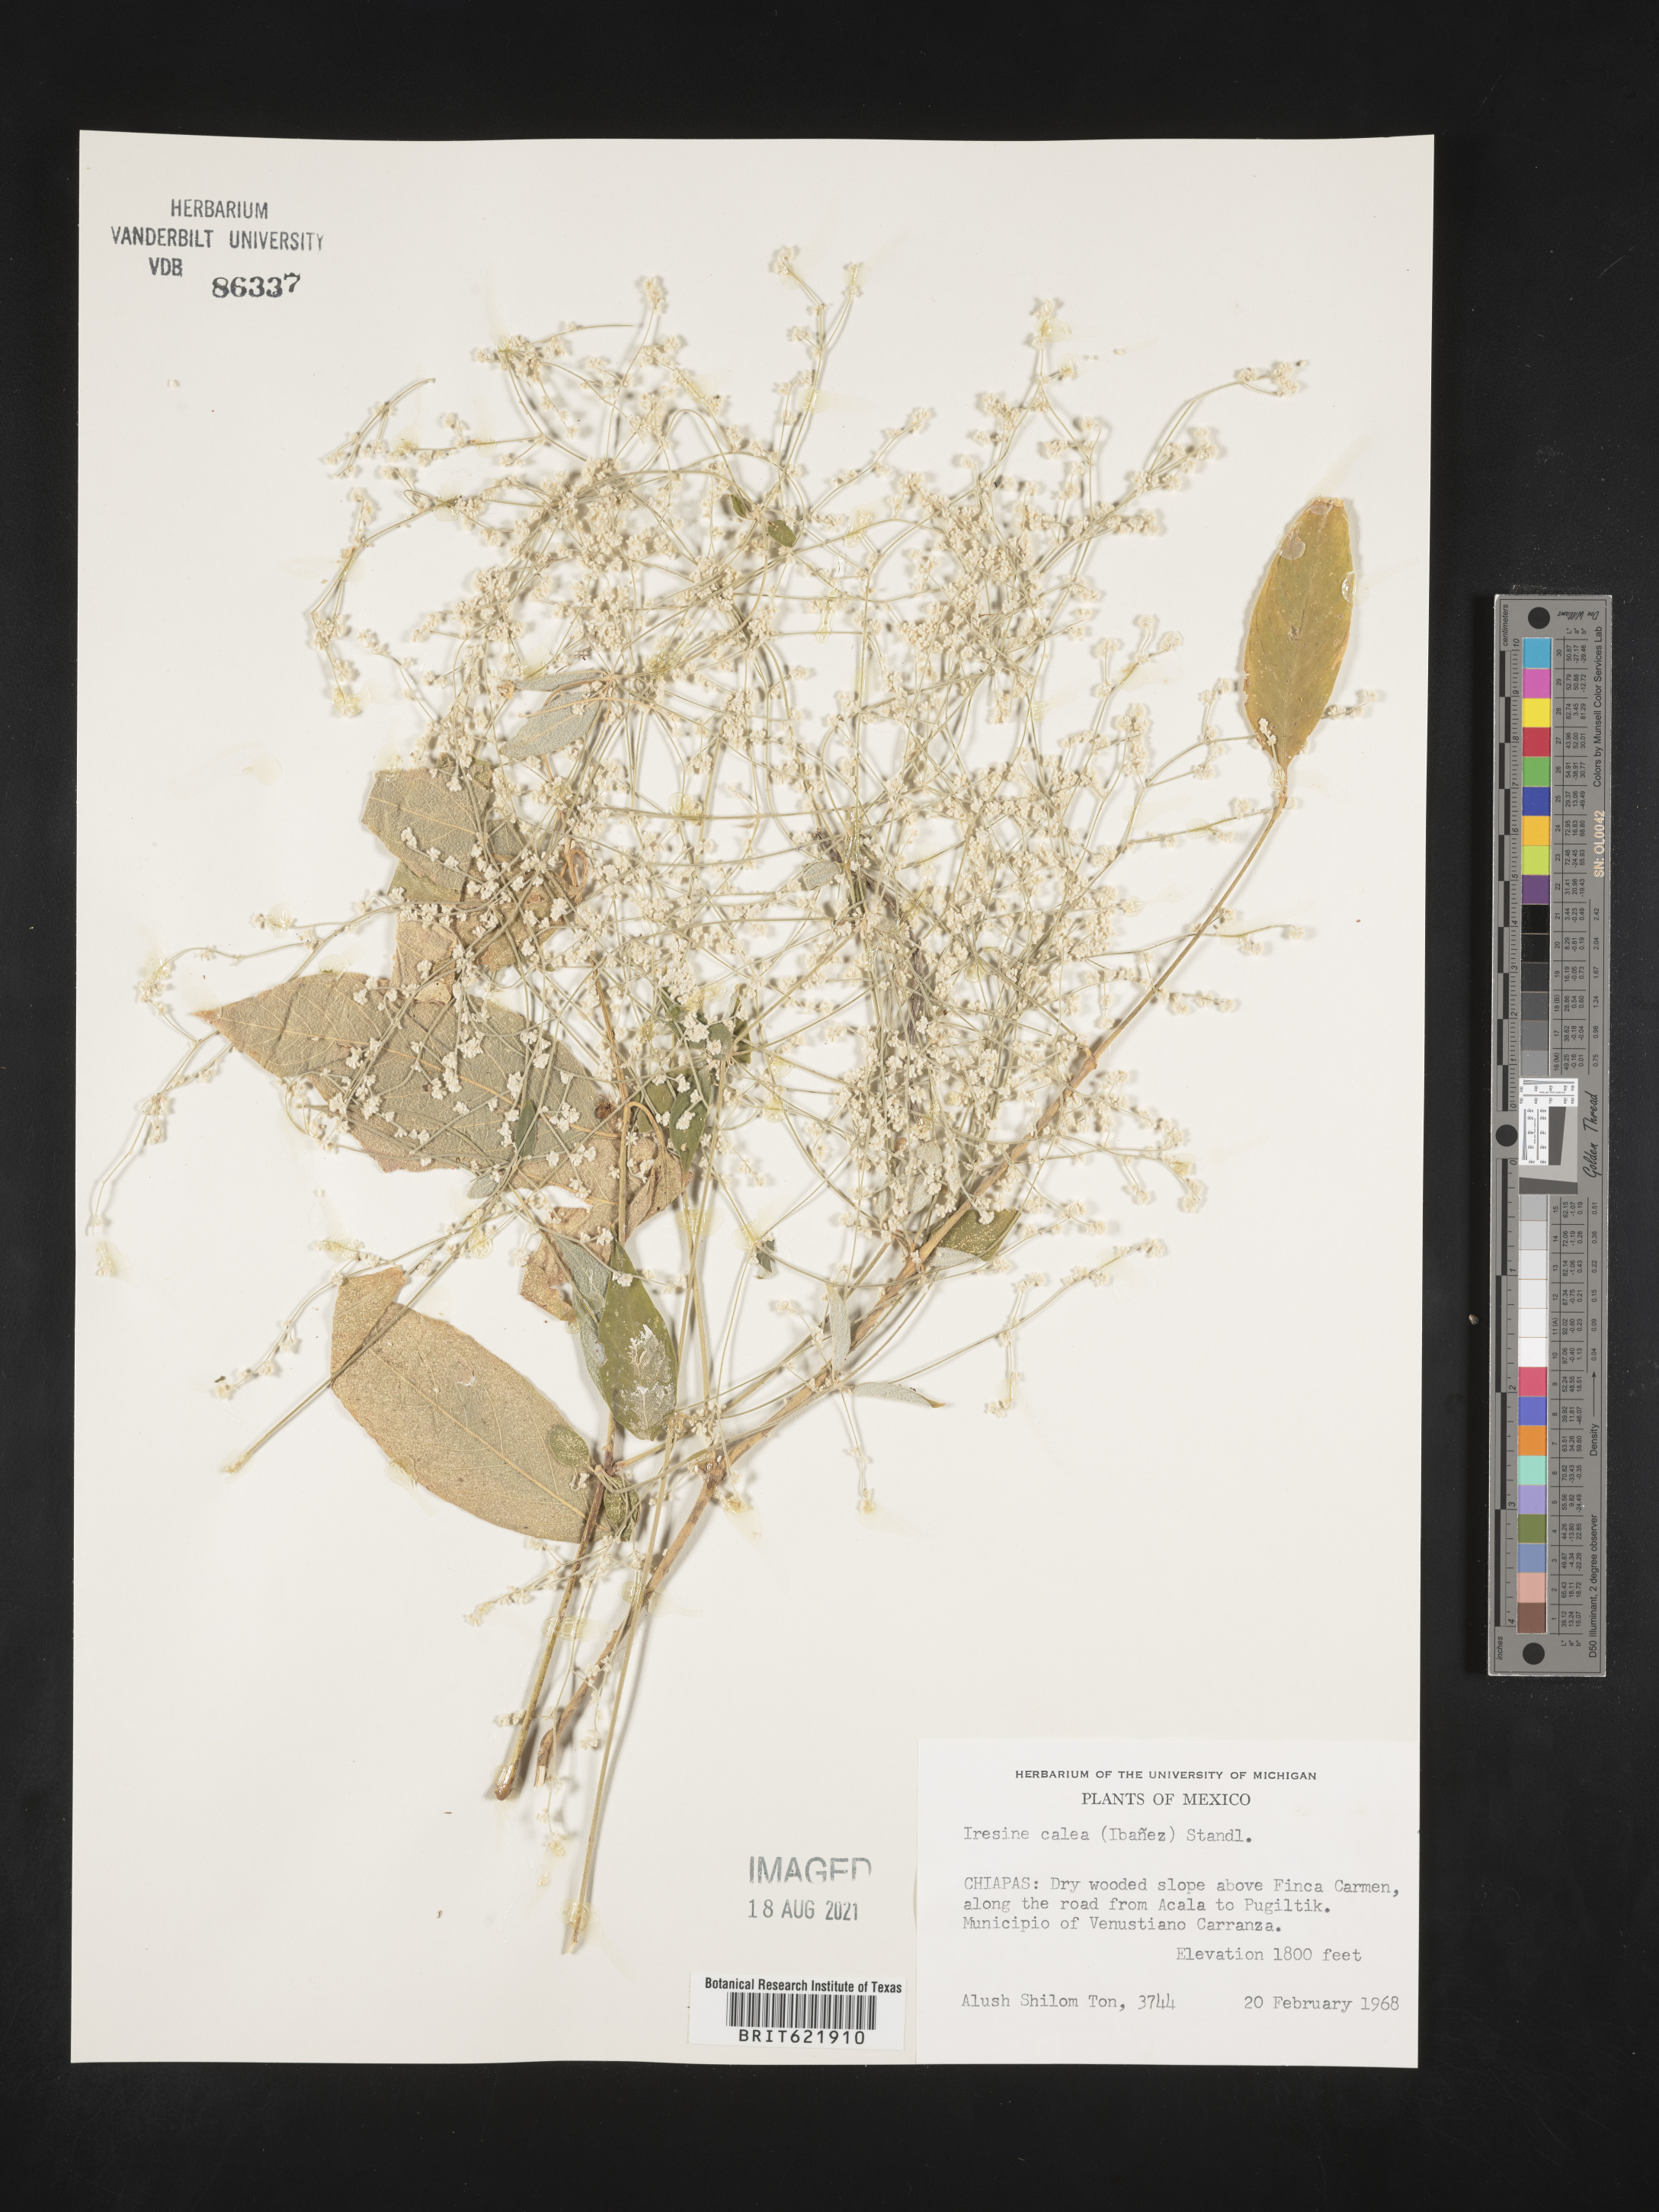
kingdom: Plantae
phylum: Tracheophyta
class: Magnoliopsida
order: Caryophyllales
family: Amaranthaceae
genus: Iresine
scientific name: Iresine
